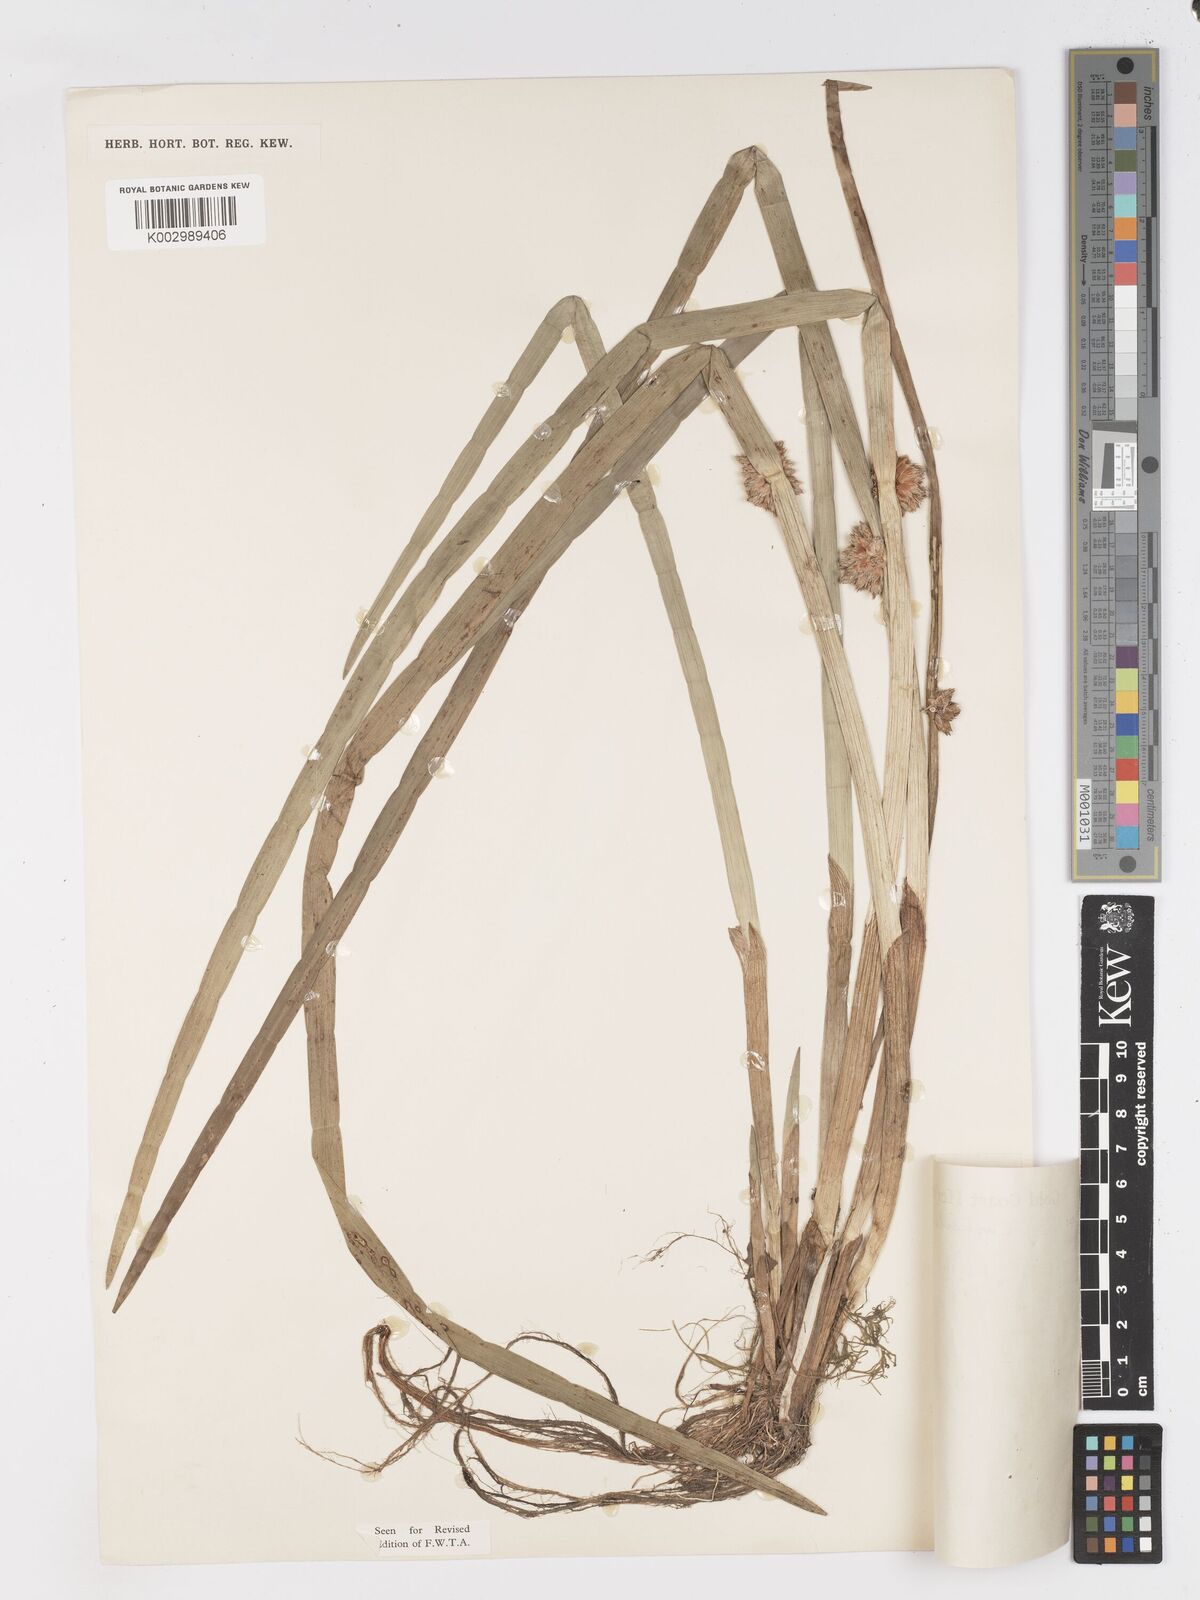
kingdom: Plantae
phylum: Tracheophyta
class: Liliopsida
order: Poales
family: Cyperaceae
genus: Schoenoplectiella
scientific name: Schoenoplectiella articulata
